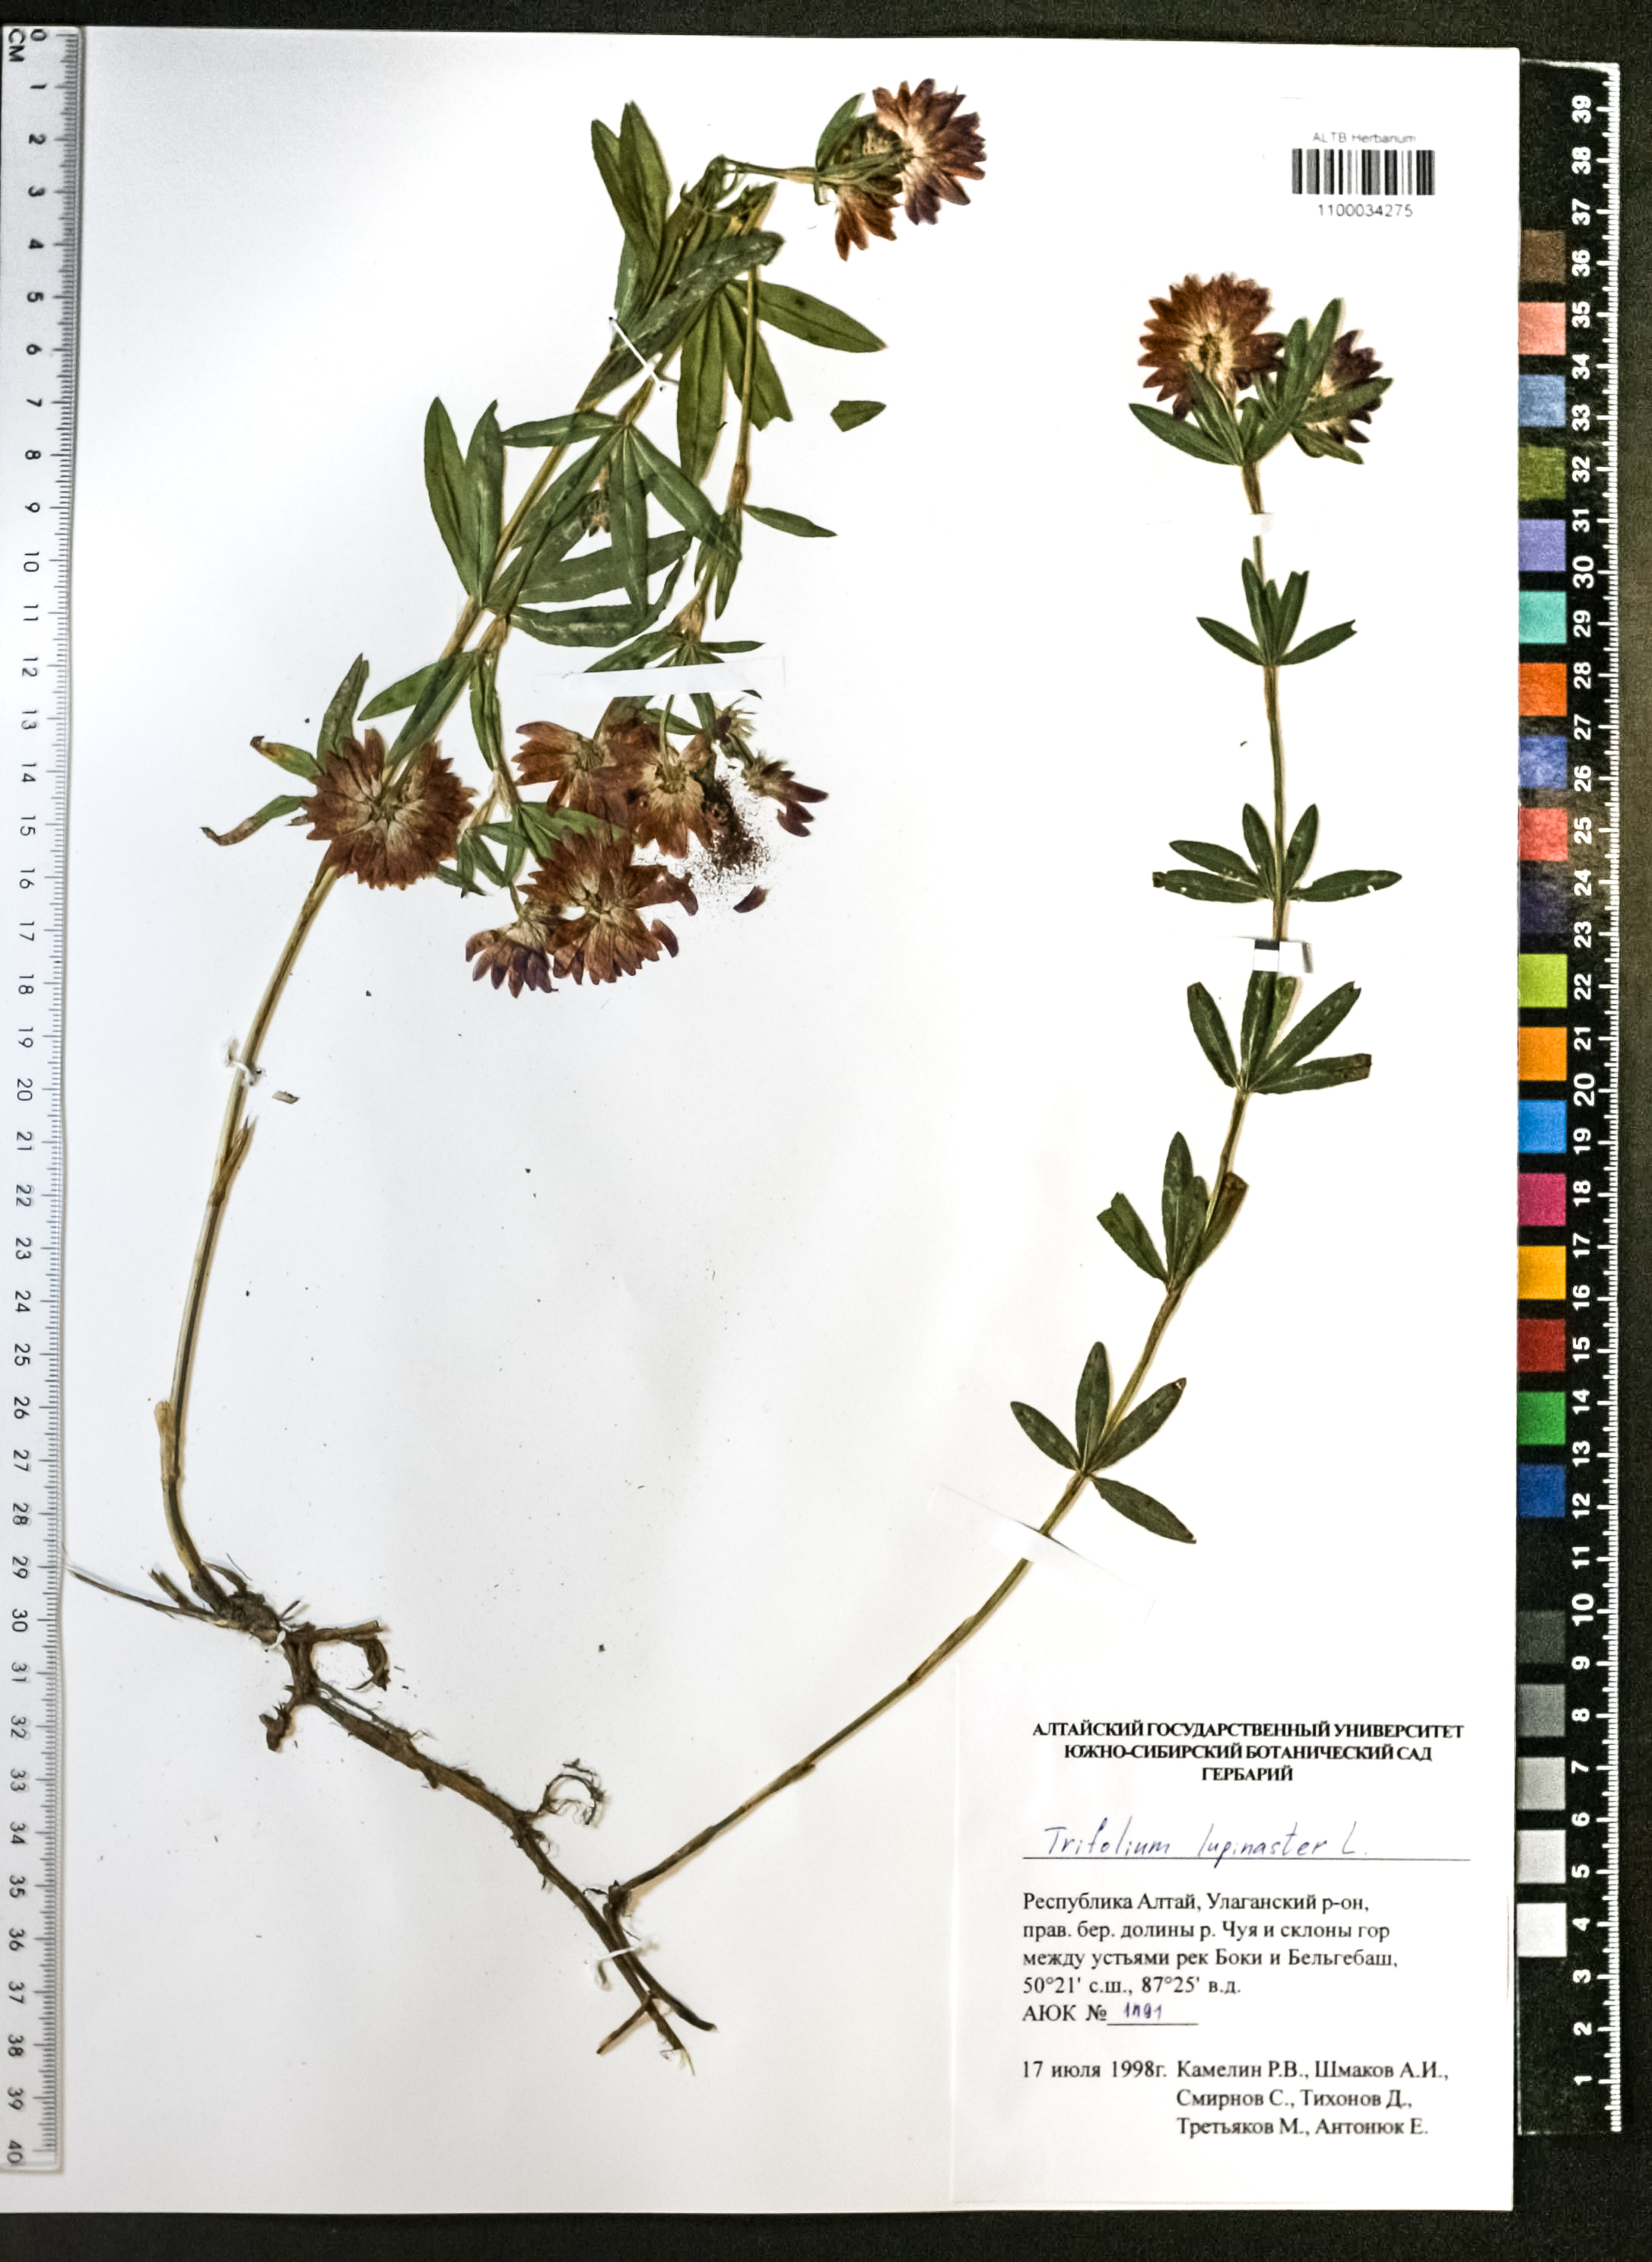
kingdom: Plantae
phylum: Tracheophyta
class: Magnoliopsida
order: Fabales
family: Fabaceae
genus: Trifolium
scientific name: Trifolium lupinaster
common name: Lupine clover
